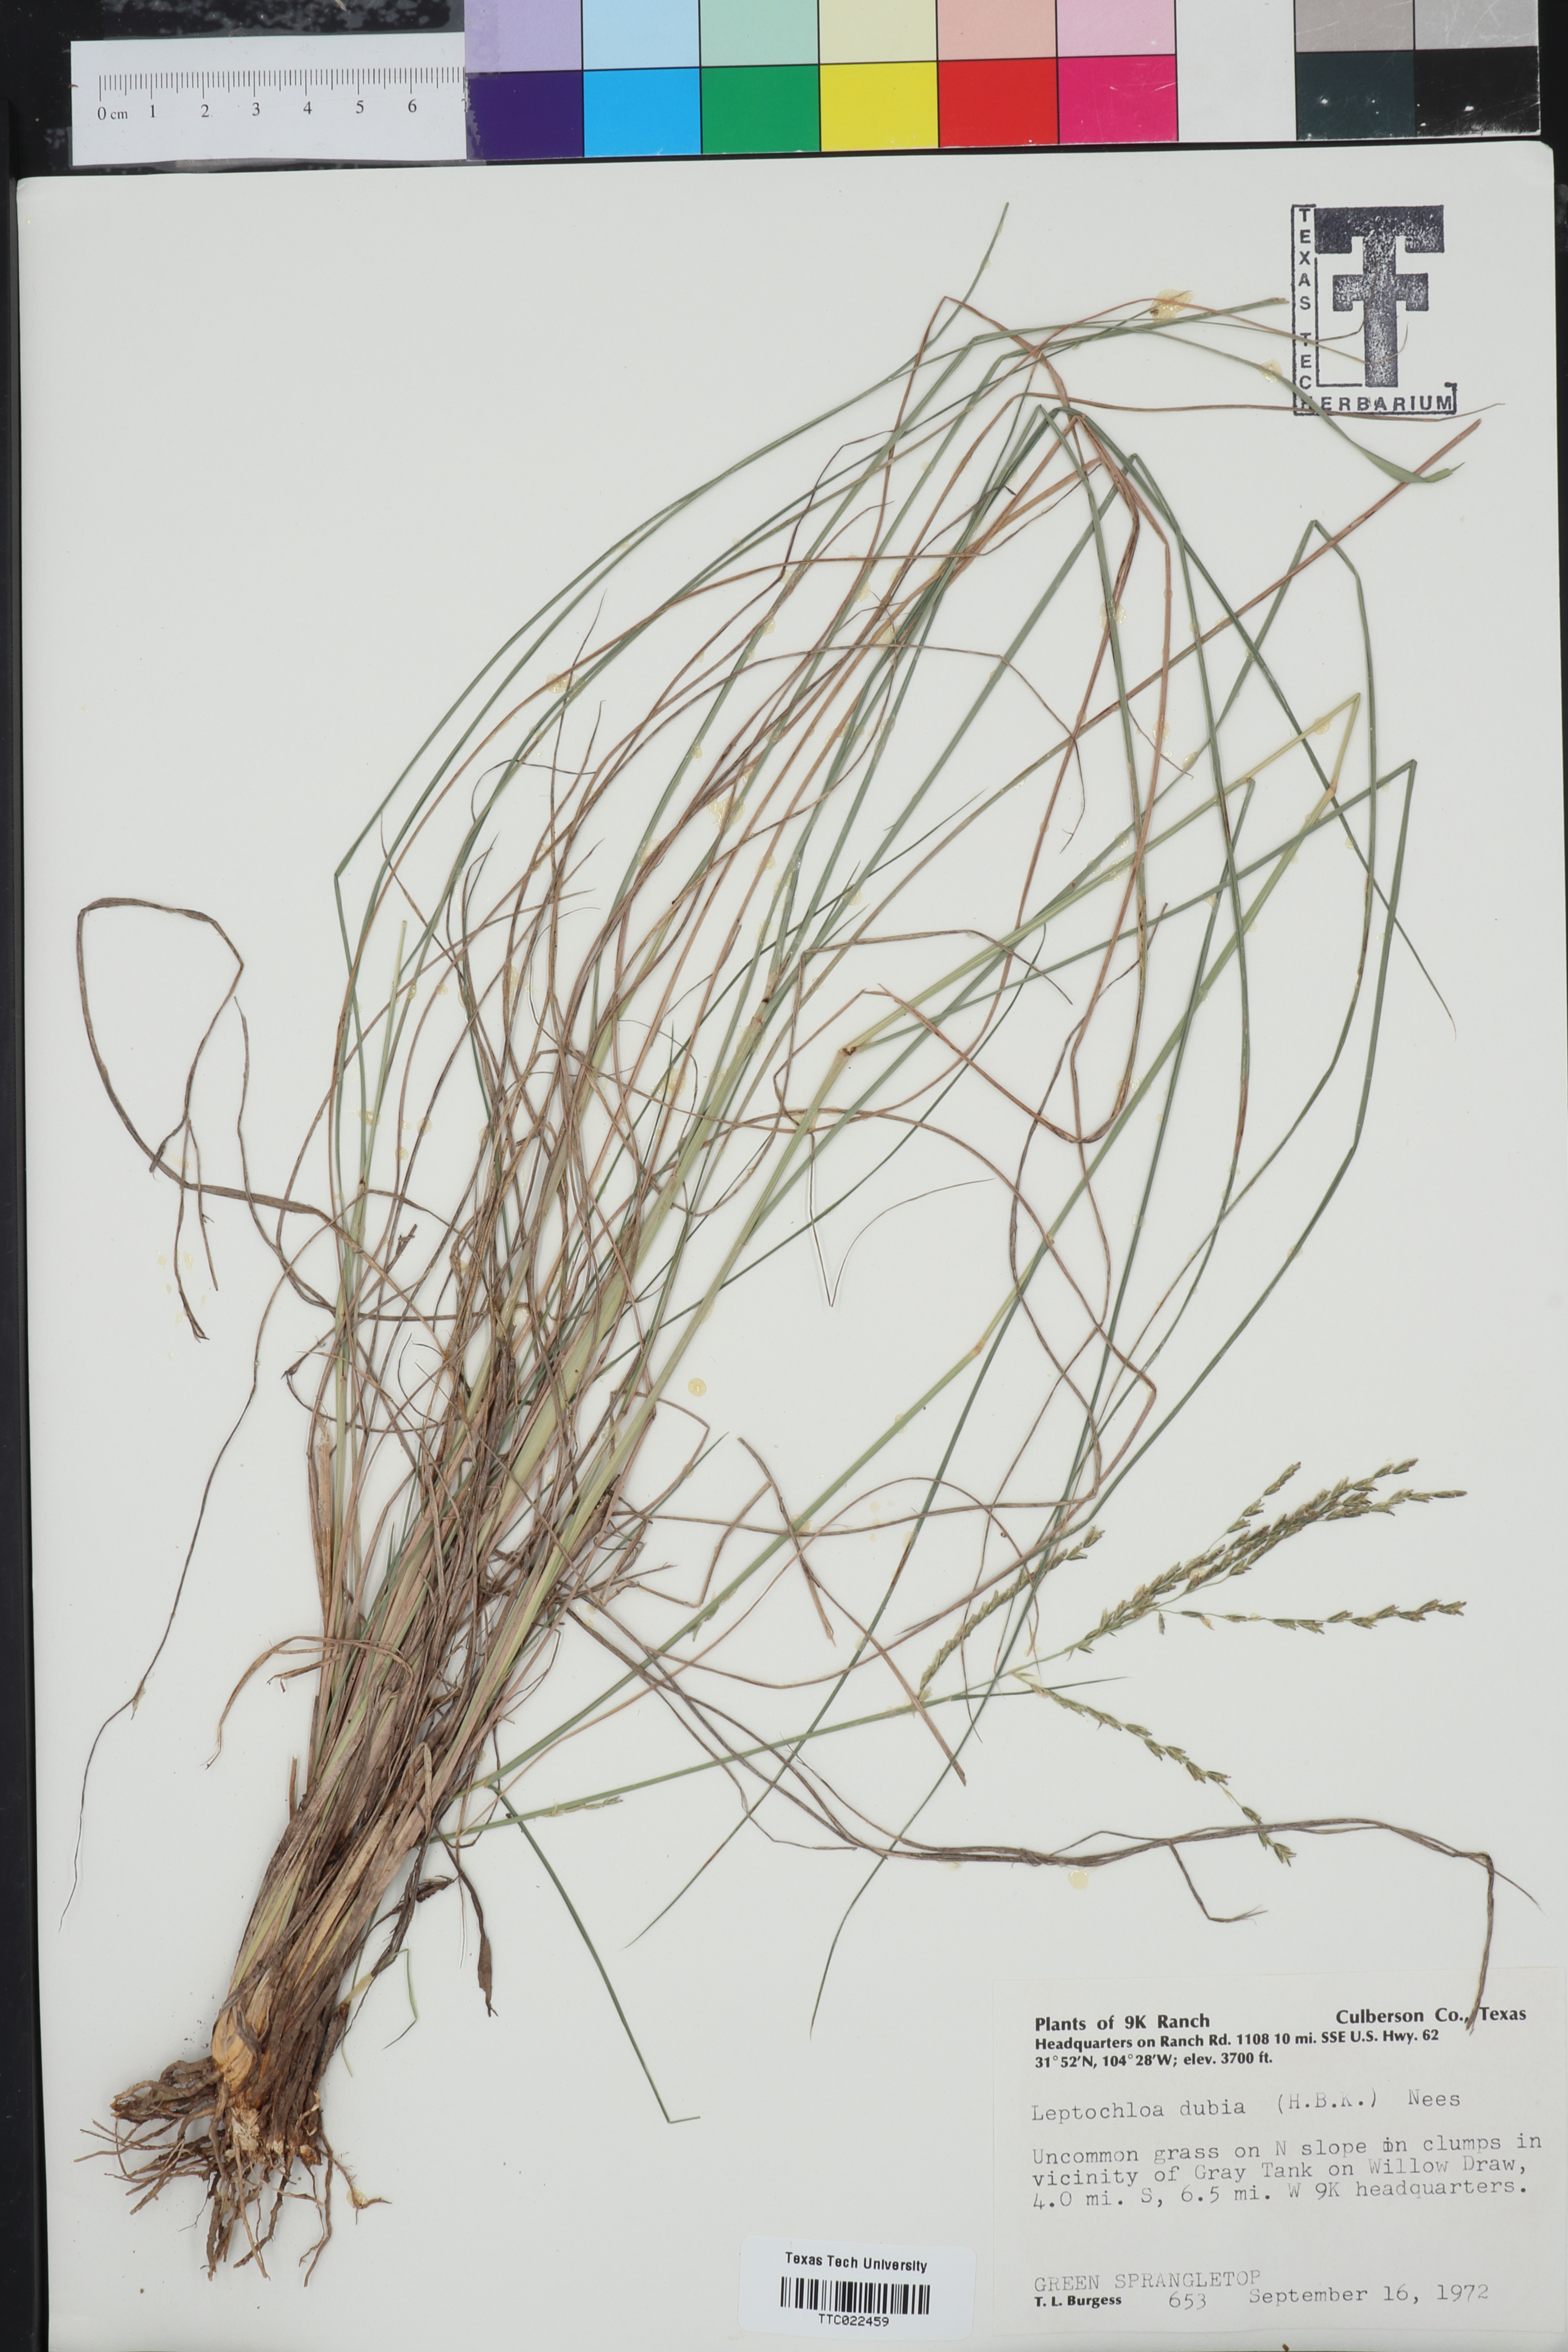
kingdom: Plantae
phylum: Tracheophyta
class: Liliopsida
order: Poales
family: Poaceae
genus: Disakisperma
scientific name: Disakisperma dubium
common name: Green sprangletop
